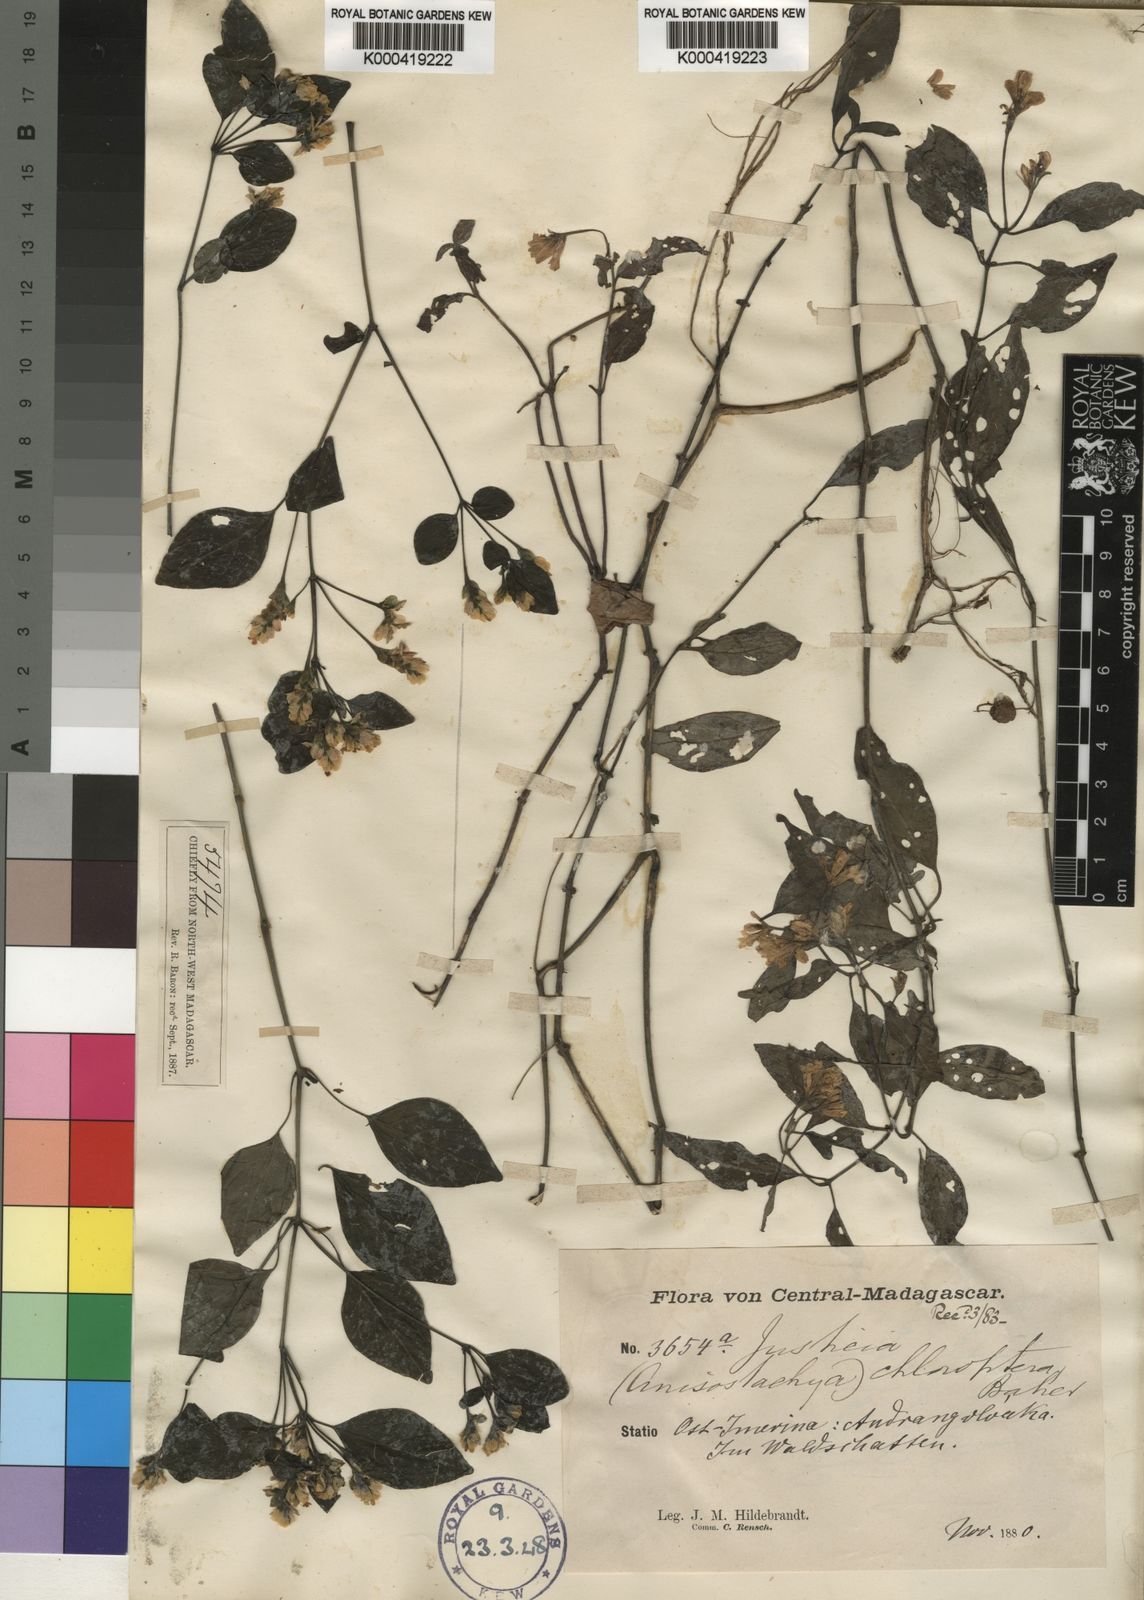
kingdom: Plantae
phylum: Tracheophyta
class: Magnoliopsida
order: Lamiales
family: Acanthaceae
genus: Justicia
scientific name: Justicia aequiloculata
